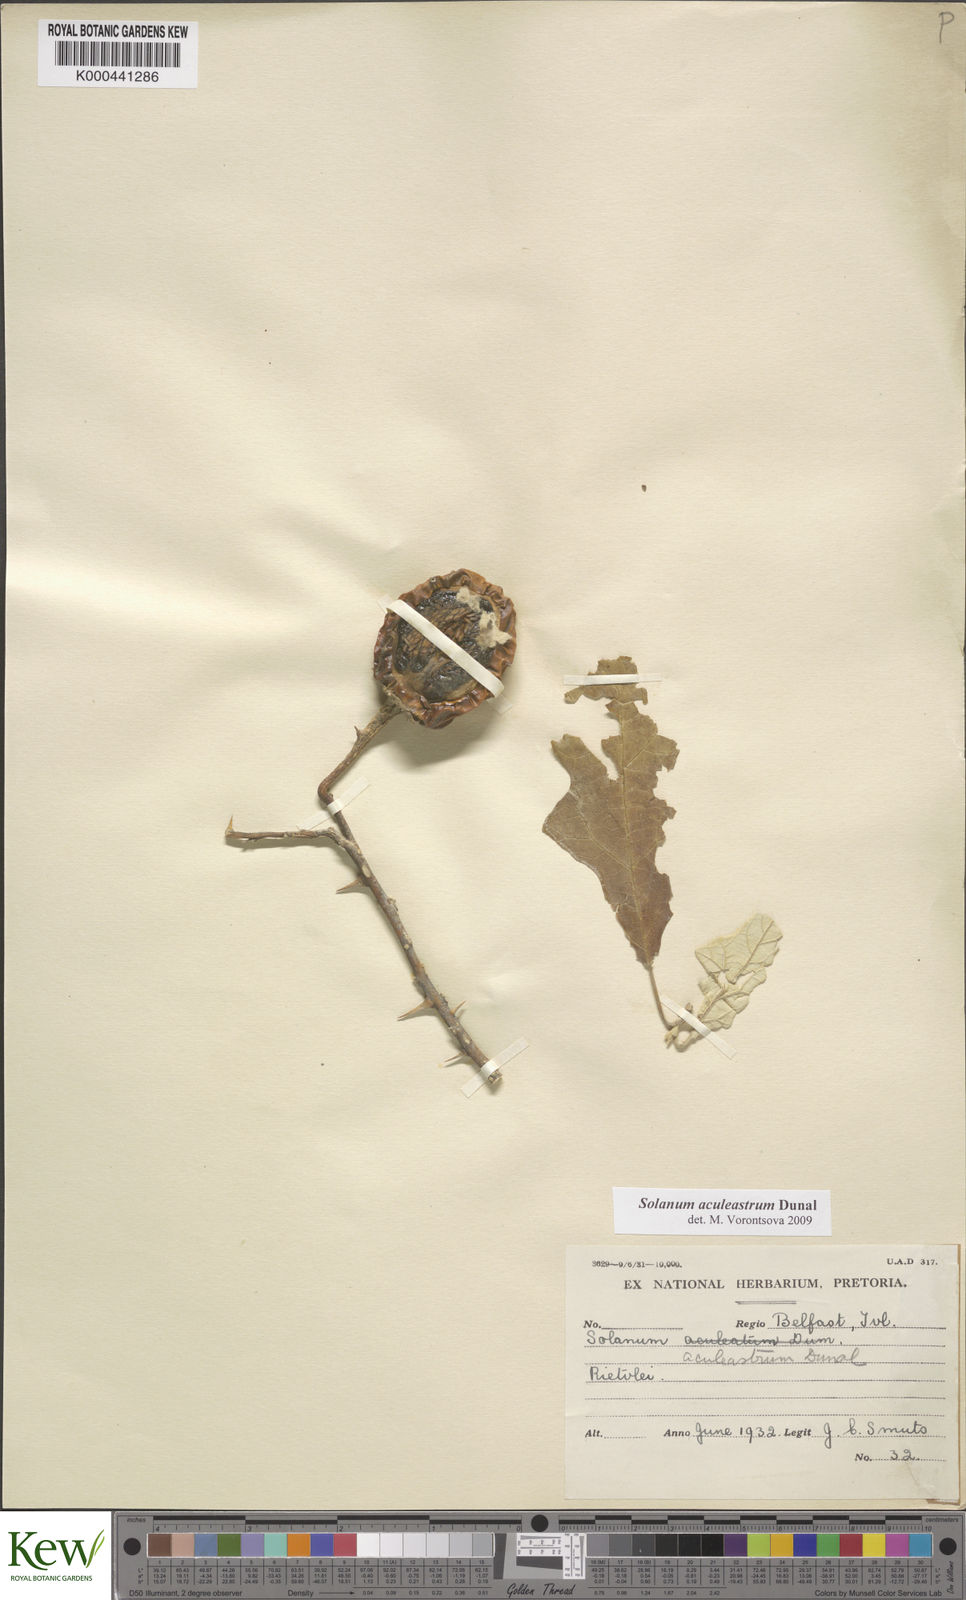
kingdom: Plantae
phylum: Tracheophyta
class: Magnoliopsida
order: Solanales
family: Solanaceae
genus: Solanum
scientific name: Solanum aculeastrum
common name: Goat bitter-apple
